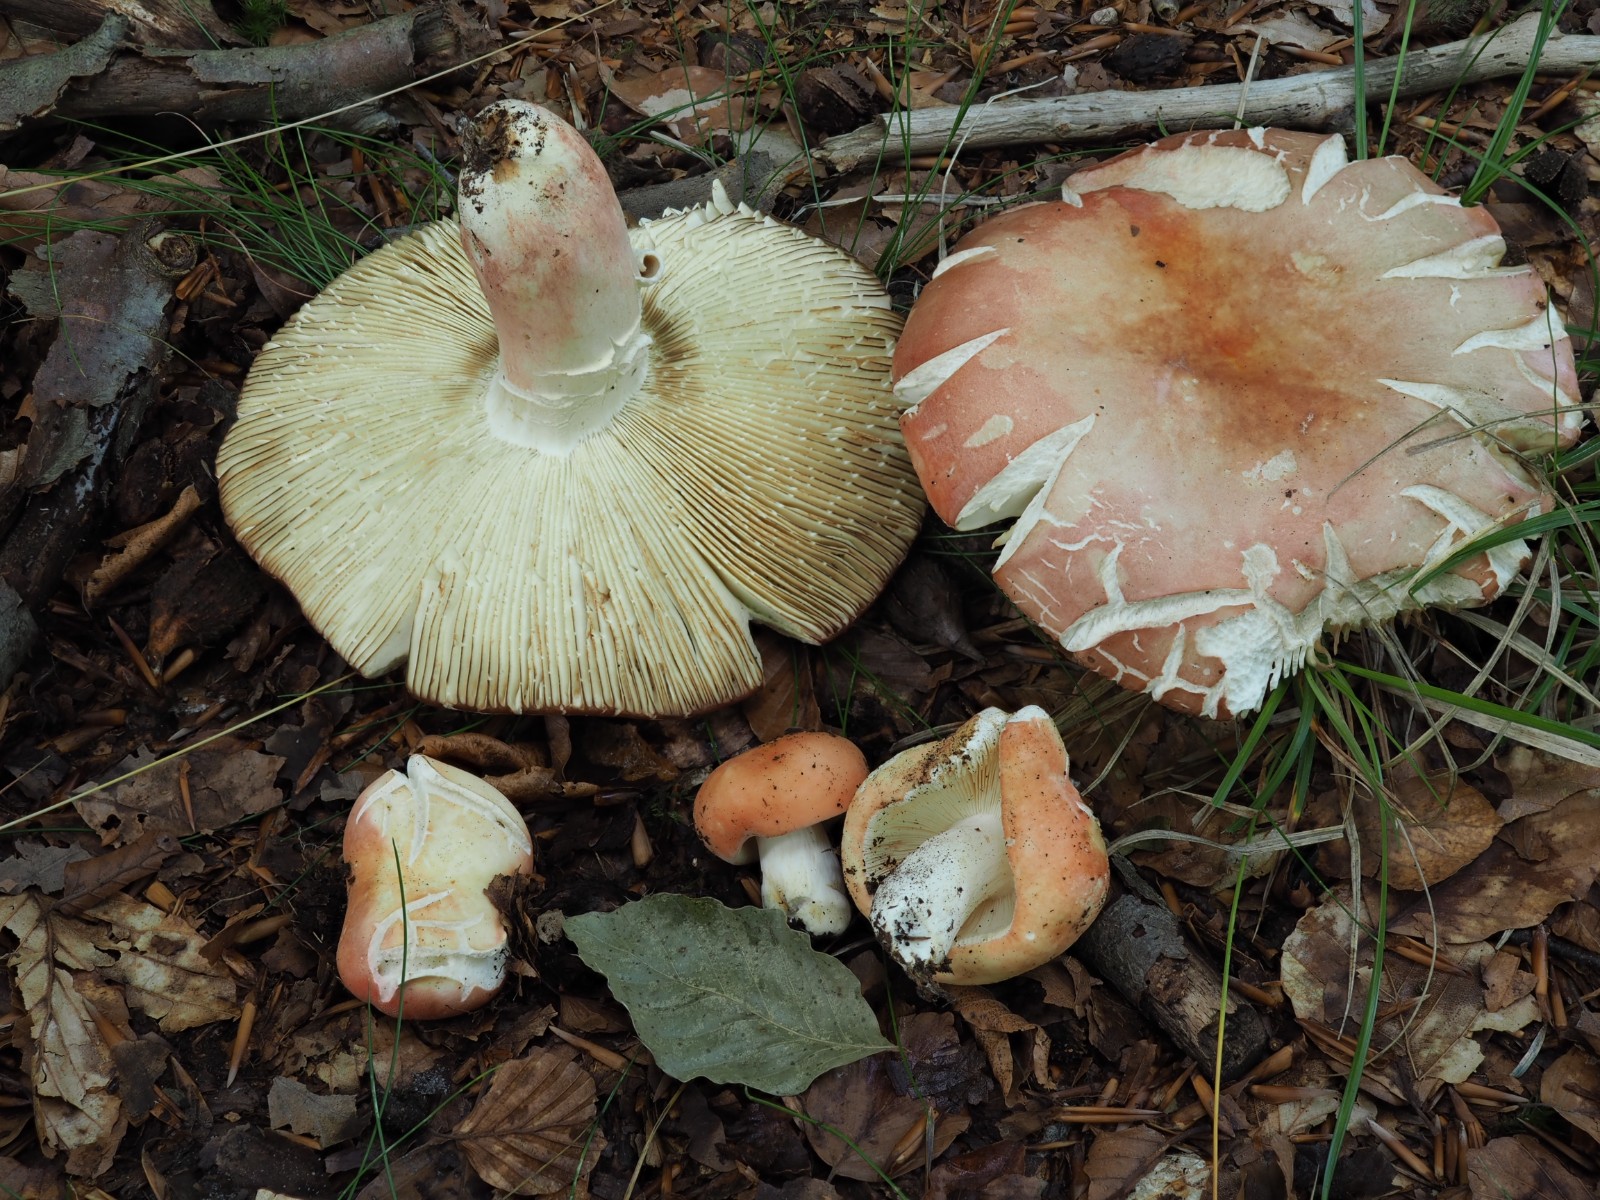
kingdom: Fungi
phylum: Basidiomycota
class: Agaricomycetes
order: Russulales
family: Russulaceae
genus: Russula
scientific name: Russula rosea
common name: fastkødet skørhat
